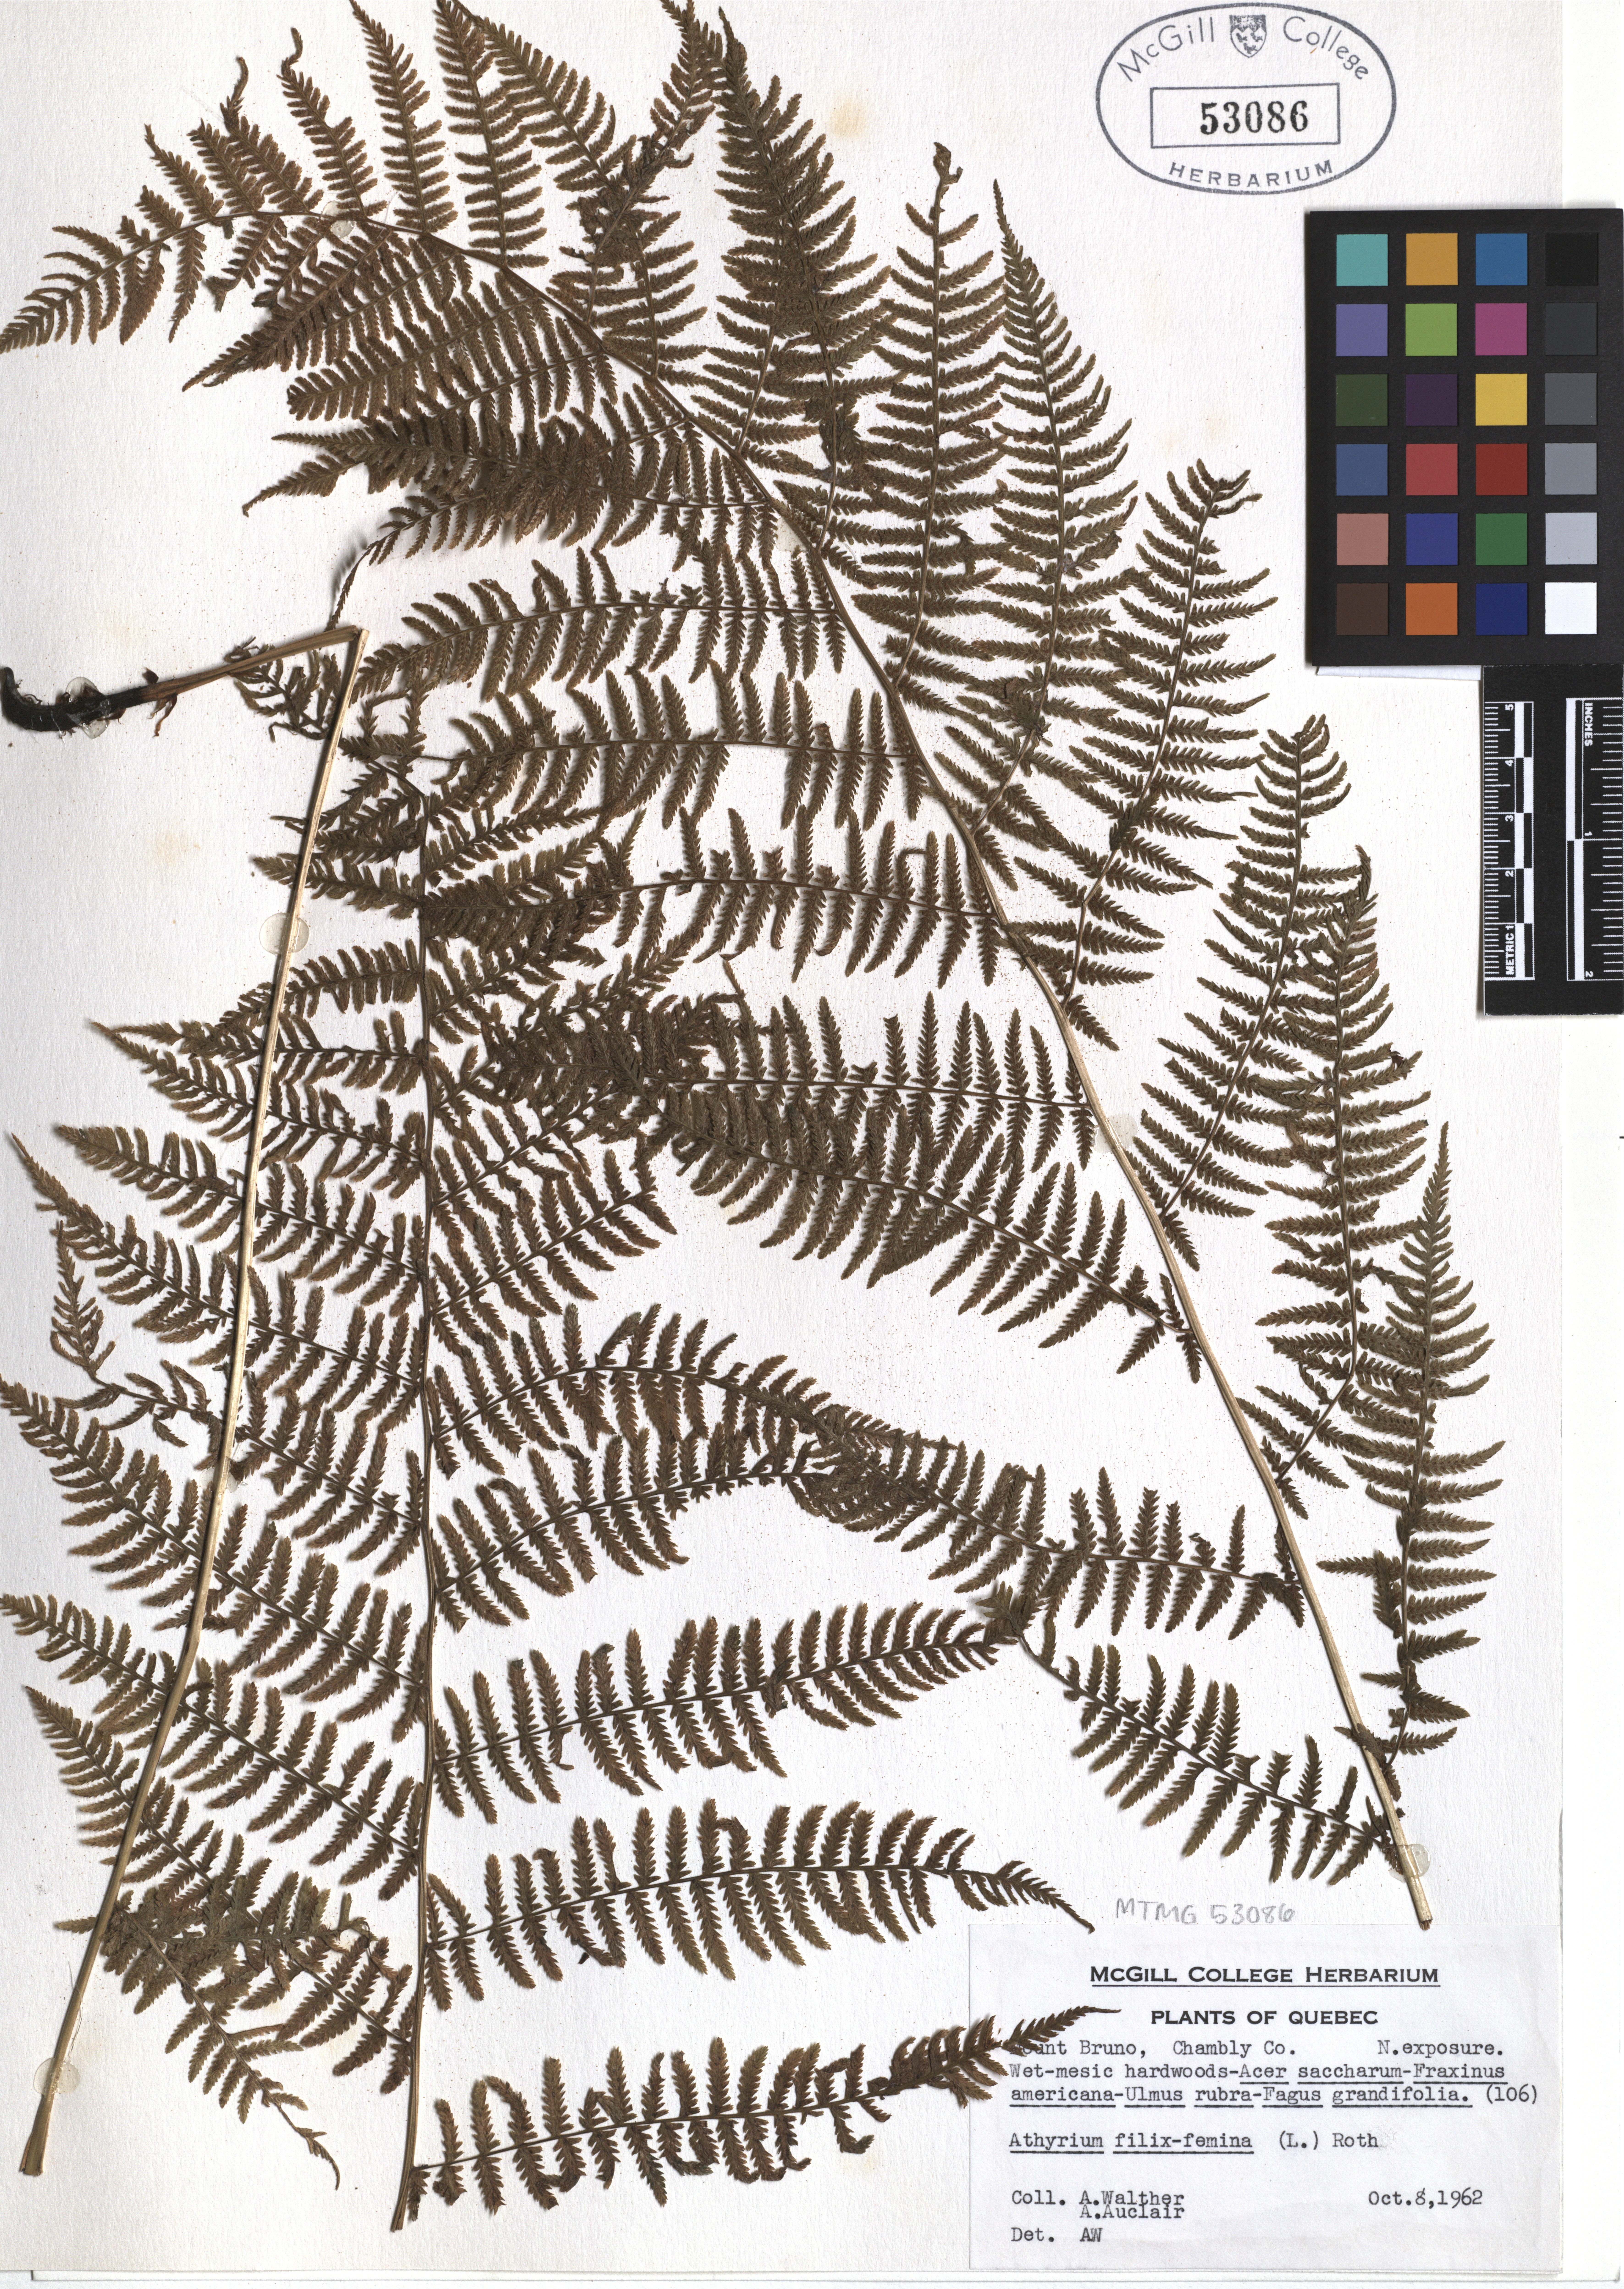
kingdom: Plantae
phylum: Tracheophyta
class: Polypodiopsida
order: Polypodiales
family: Athyriaceae
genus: Athyrium
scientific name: Athyrium filix-femina
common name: Lady fern
